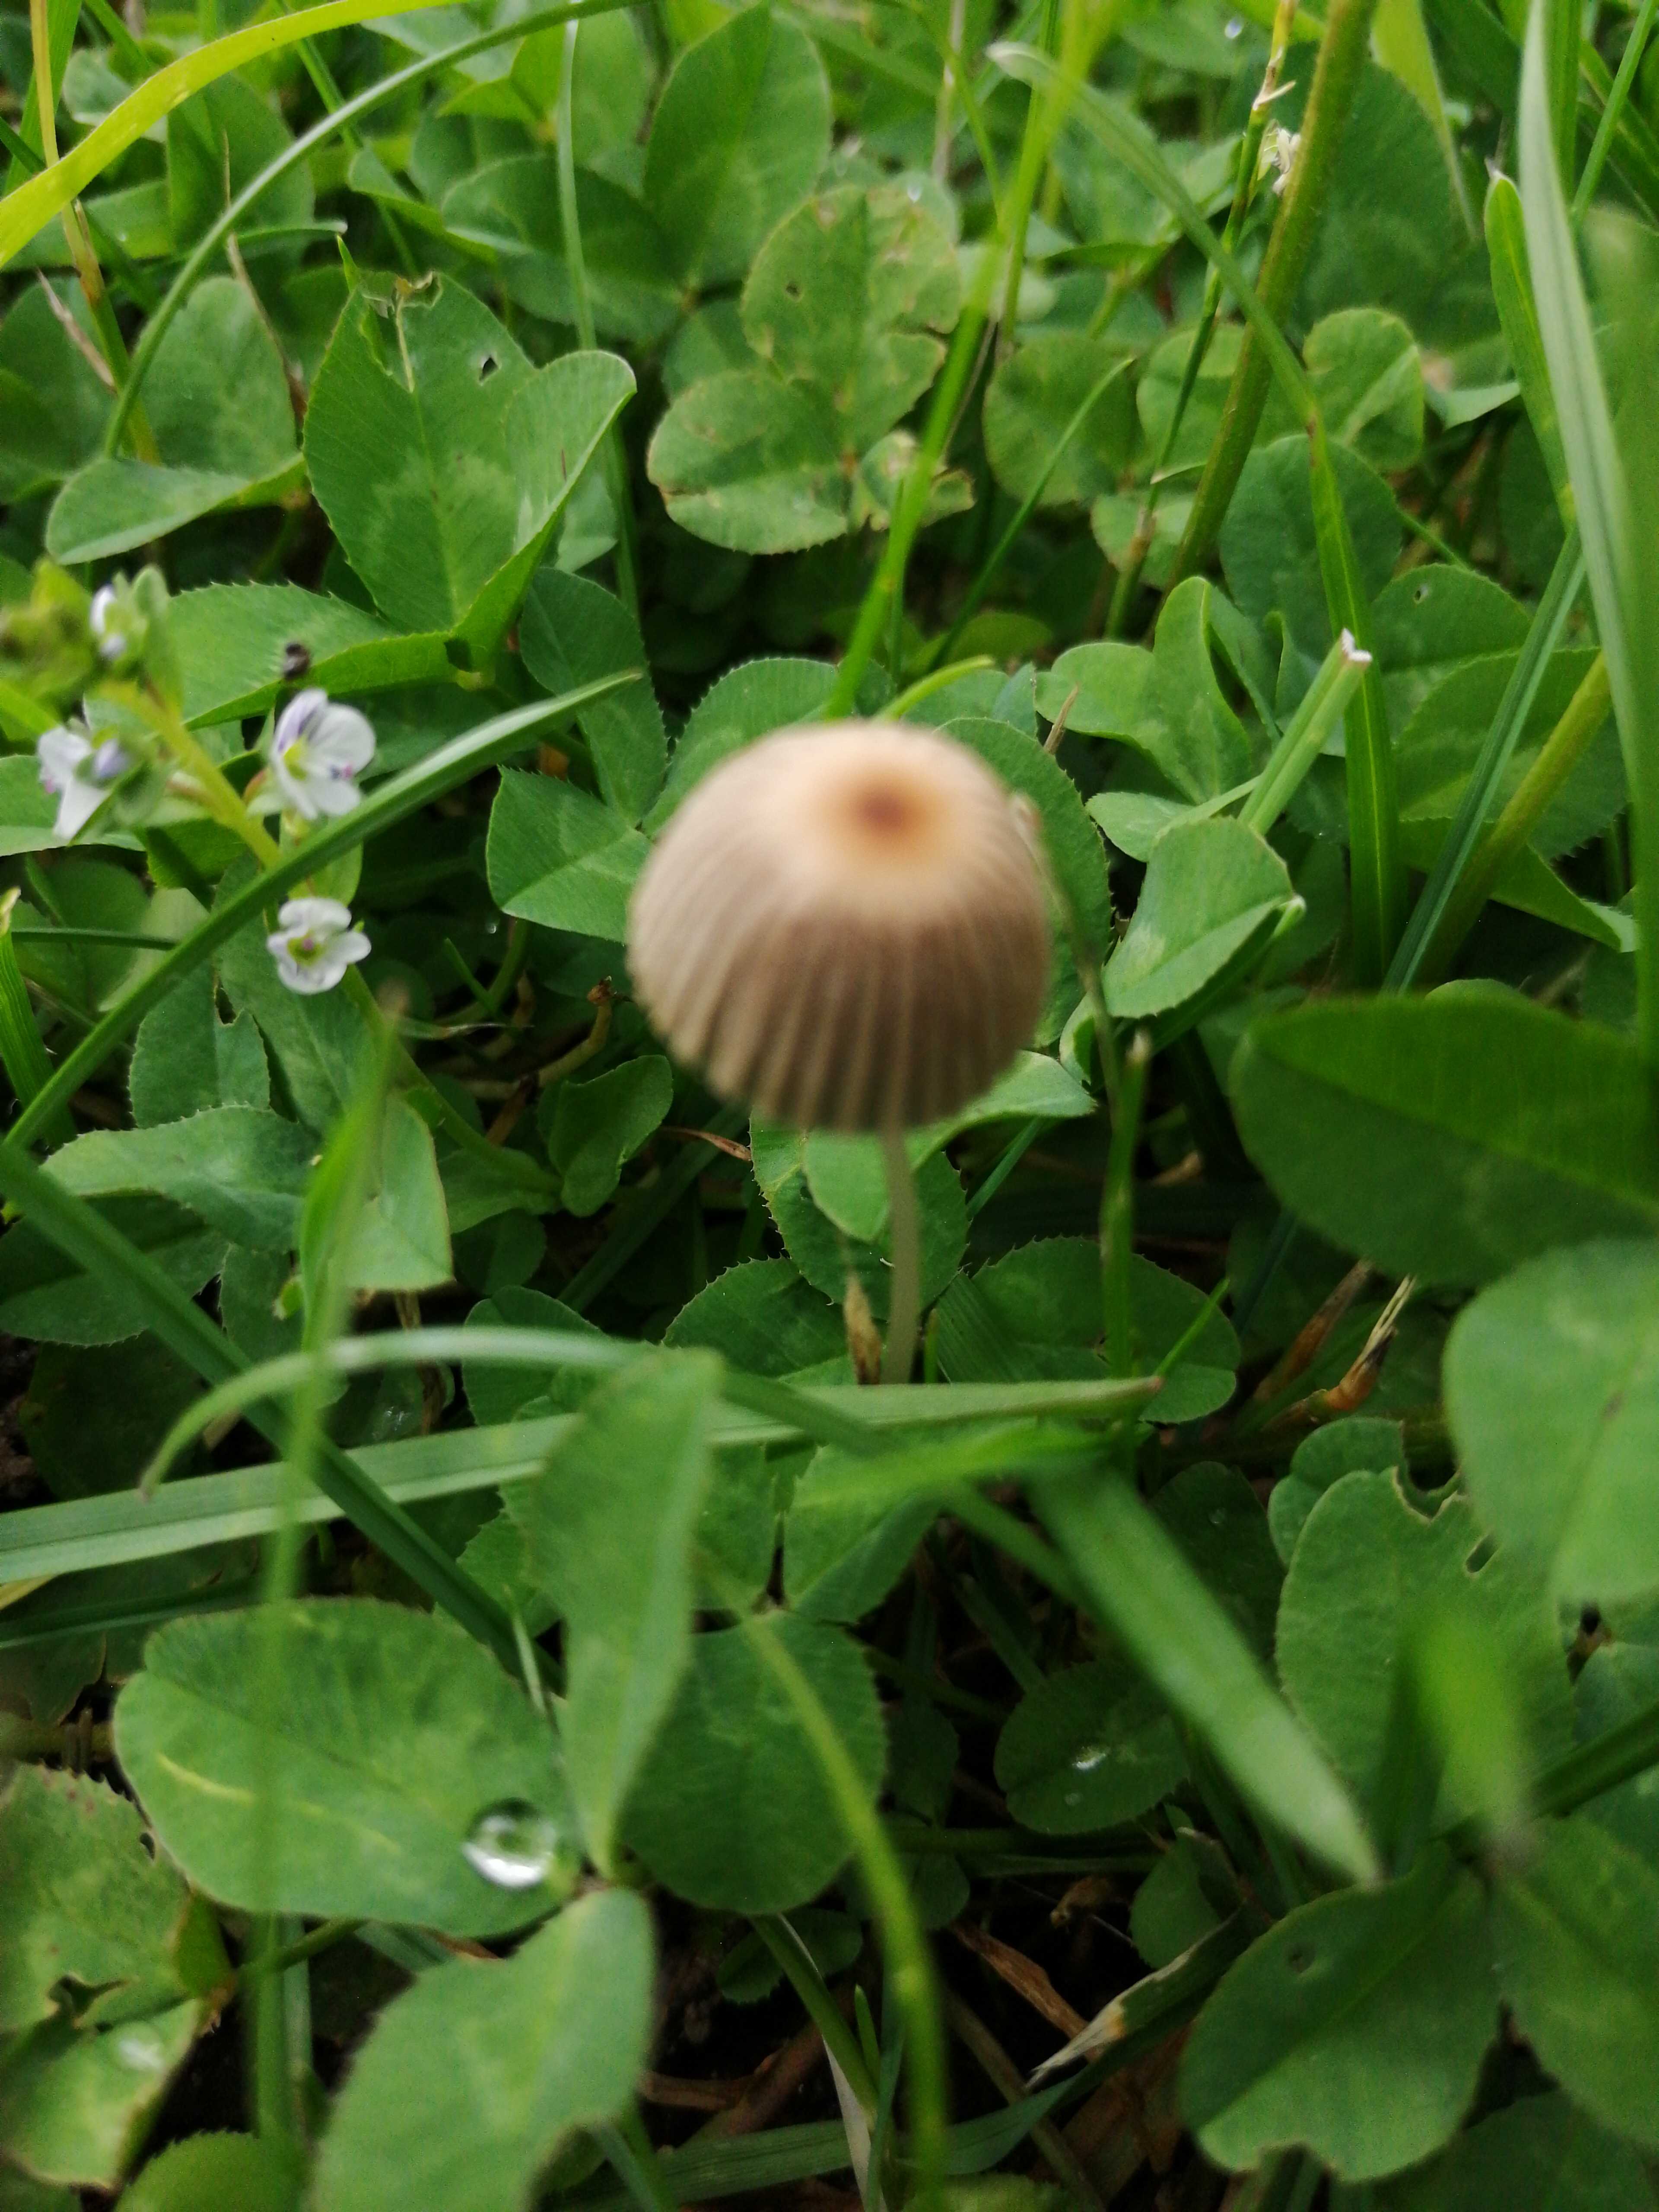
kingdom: Fungi
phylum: Basidiomycota
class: Agaricomycetes
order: Agaricales
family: Psathyrellaceae
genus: Parasola
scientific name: Parasola
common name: hjulhat
